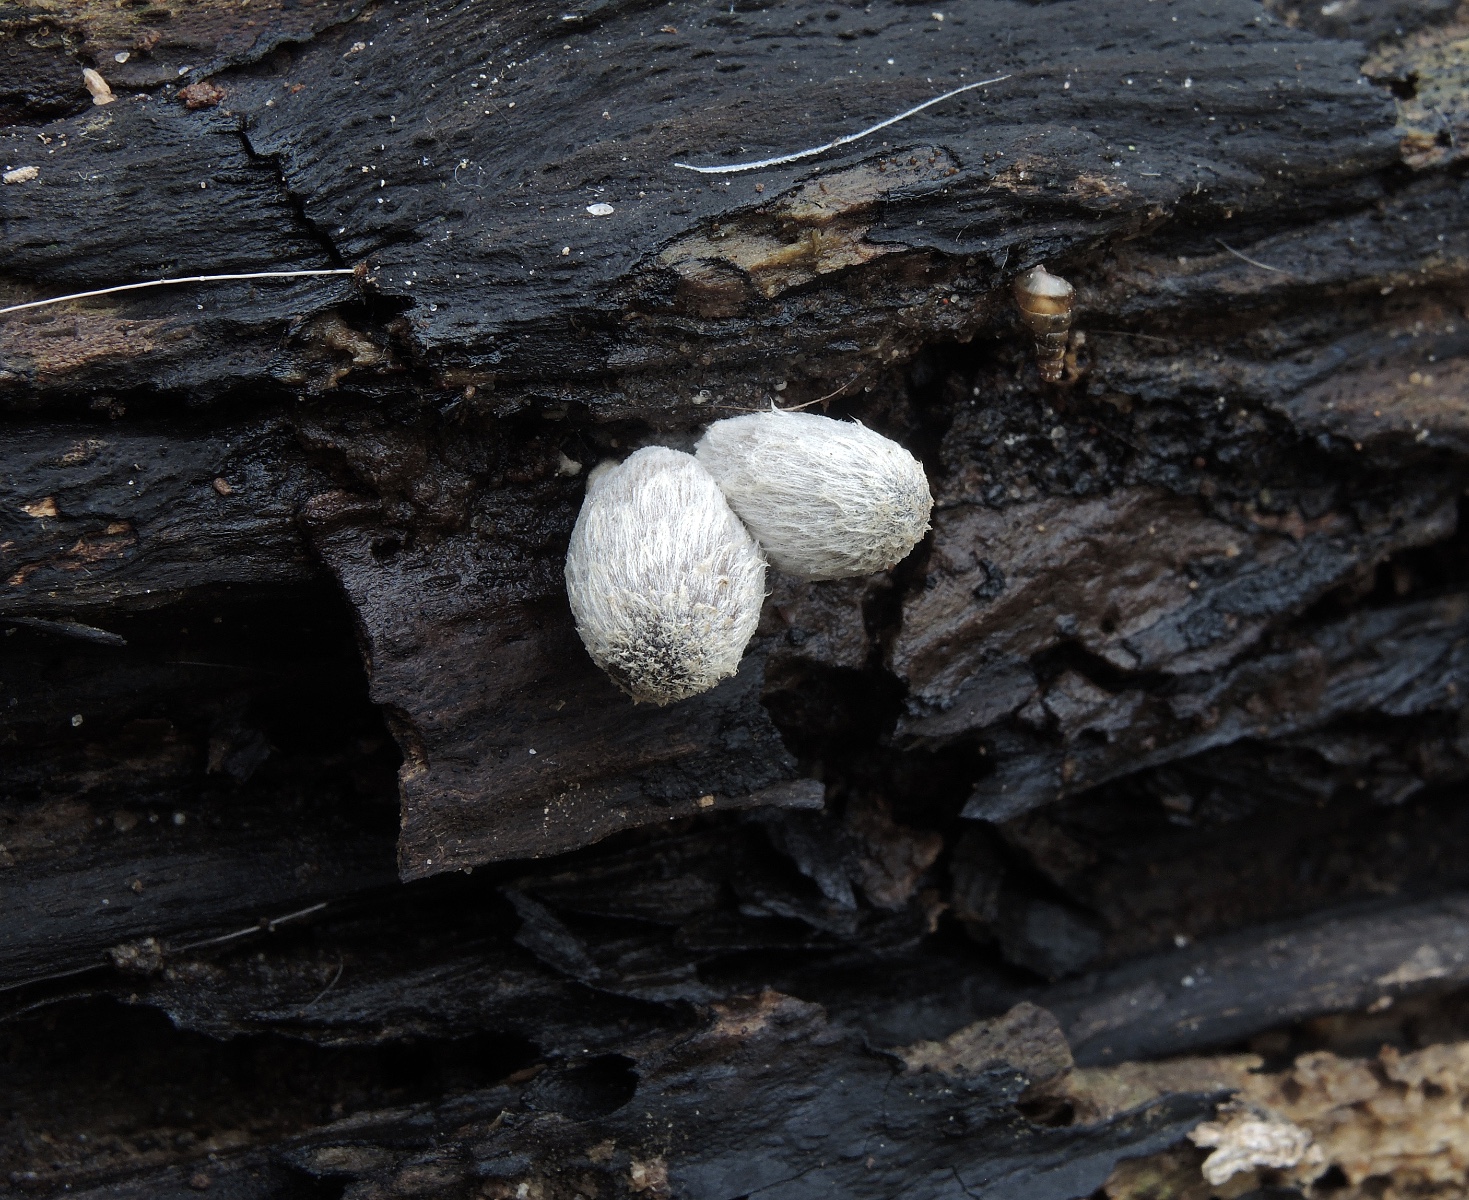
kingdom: Fungi
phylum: Basidiomycota
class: Agaricomycetes
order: Agaricales
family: Psathyrellaceae
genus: Coprinopsis
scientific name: Coprinopsis echinospora
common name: fuglemøg-blækhat
